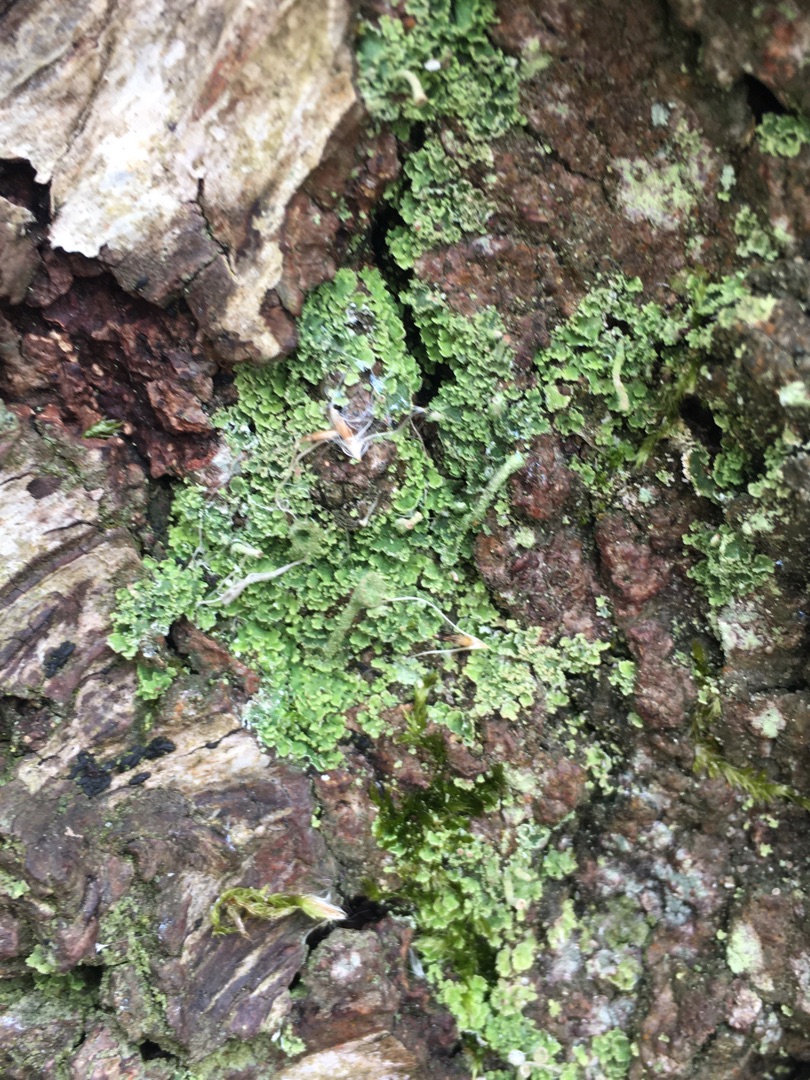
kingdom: Fungi
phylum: Ascomycota
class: Lecanoromycetes
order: Lecanorales
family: Cladoniaceae
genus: Cladonia
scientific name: Cladonia chlorophaea
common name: Brungrøn bægerlav
